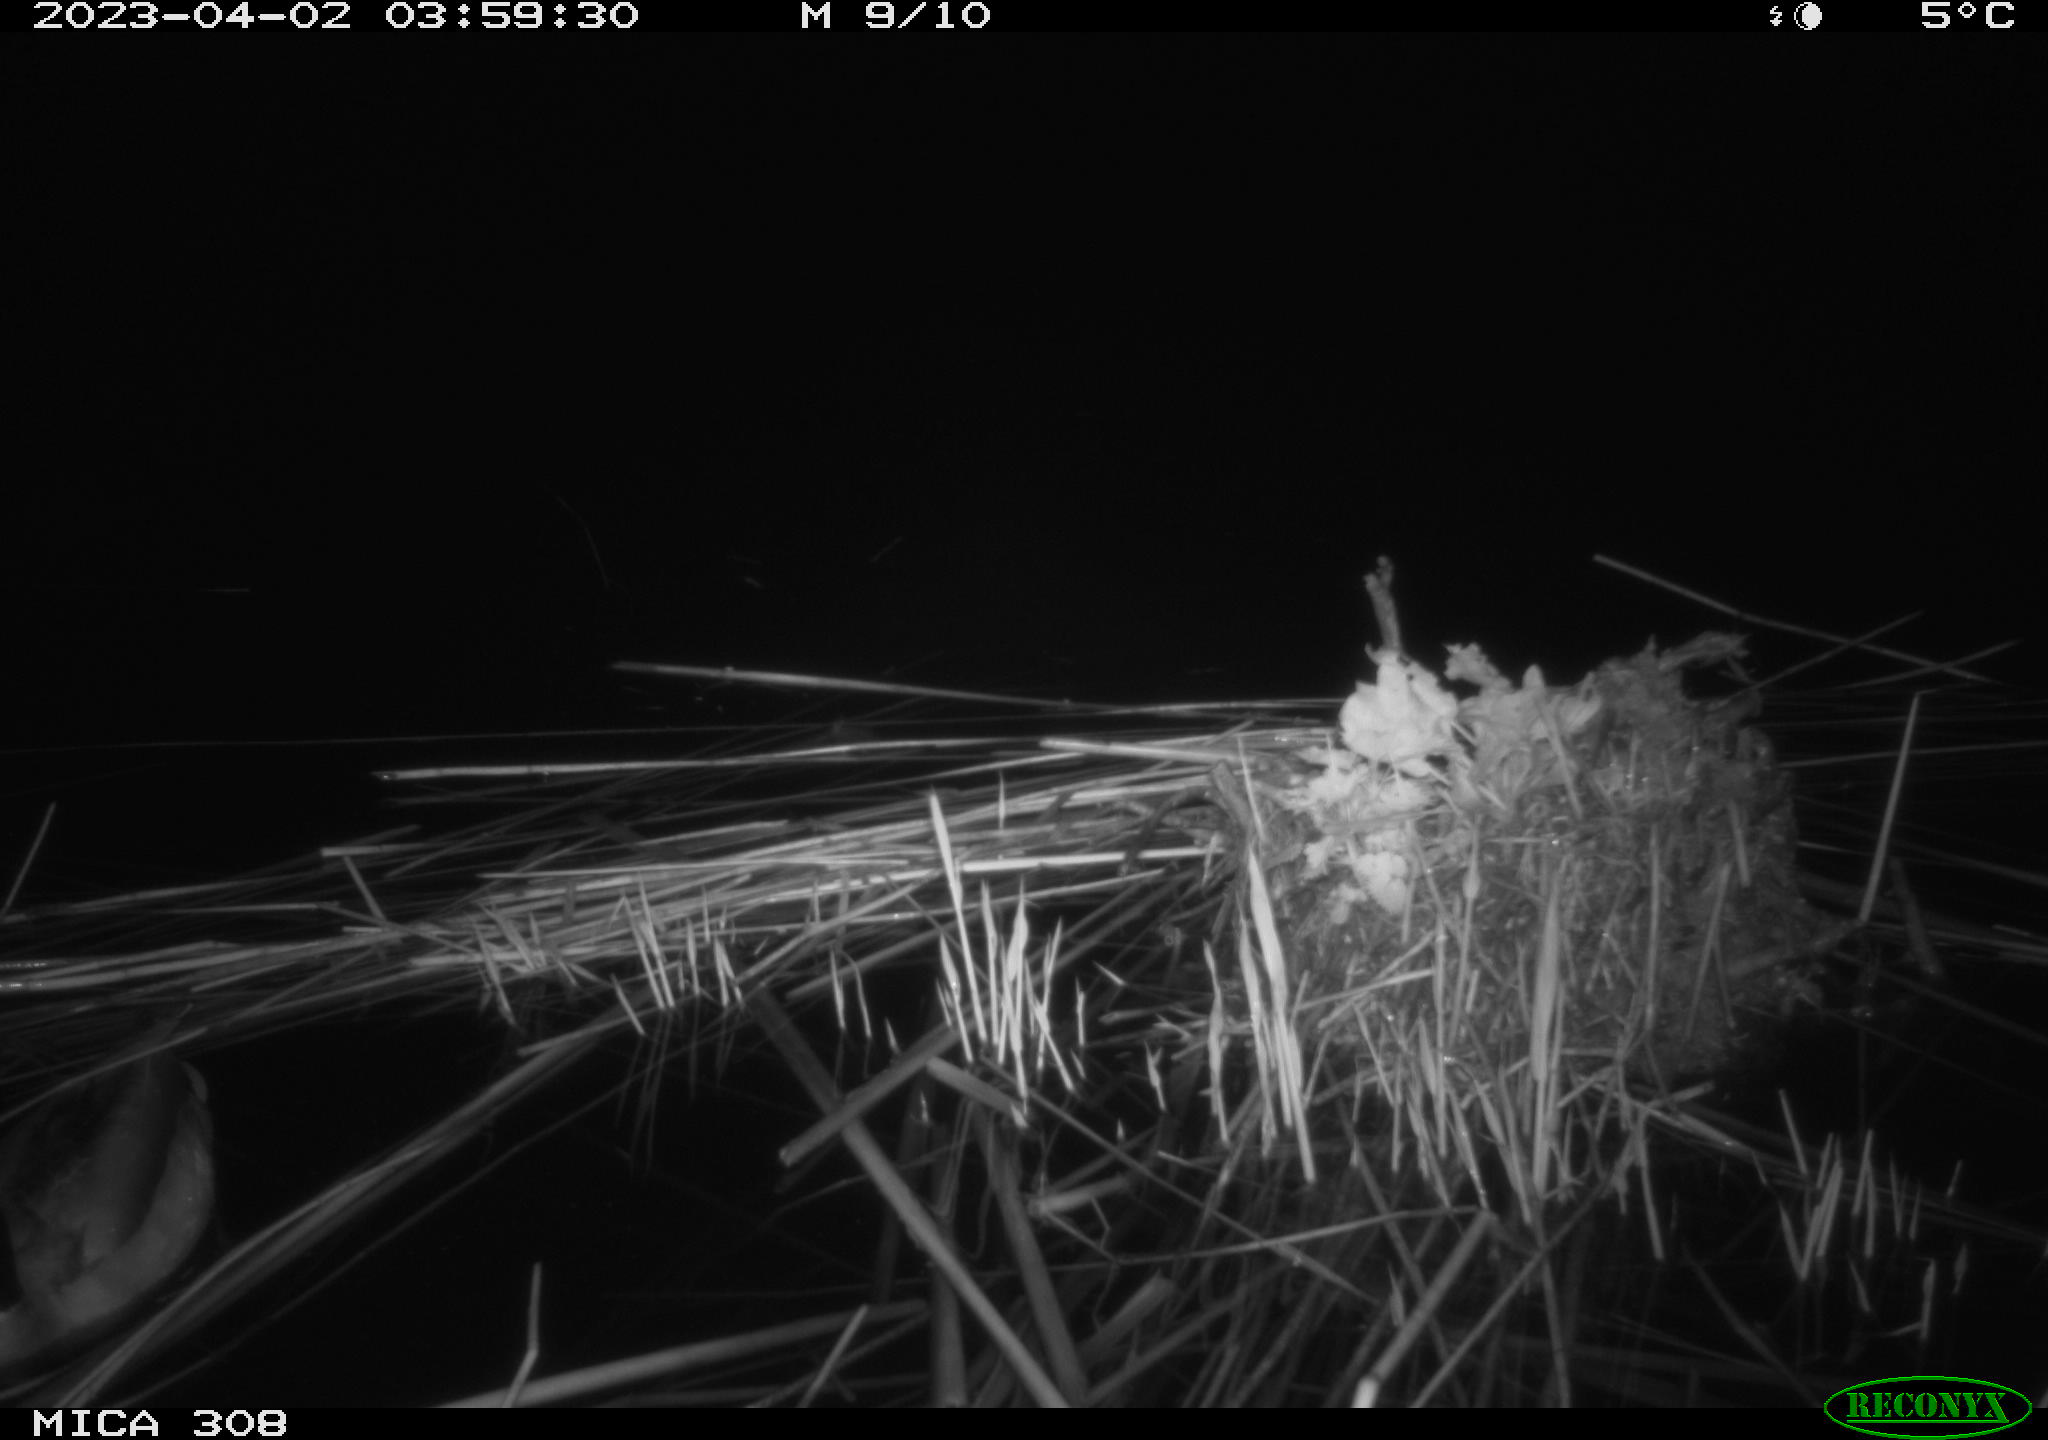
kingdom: Animalia
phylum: Chordata
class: Aves
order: Anseriformes
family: Anatidae
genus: Anas
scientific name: Anas
